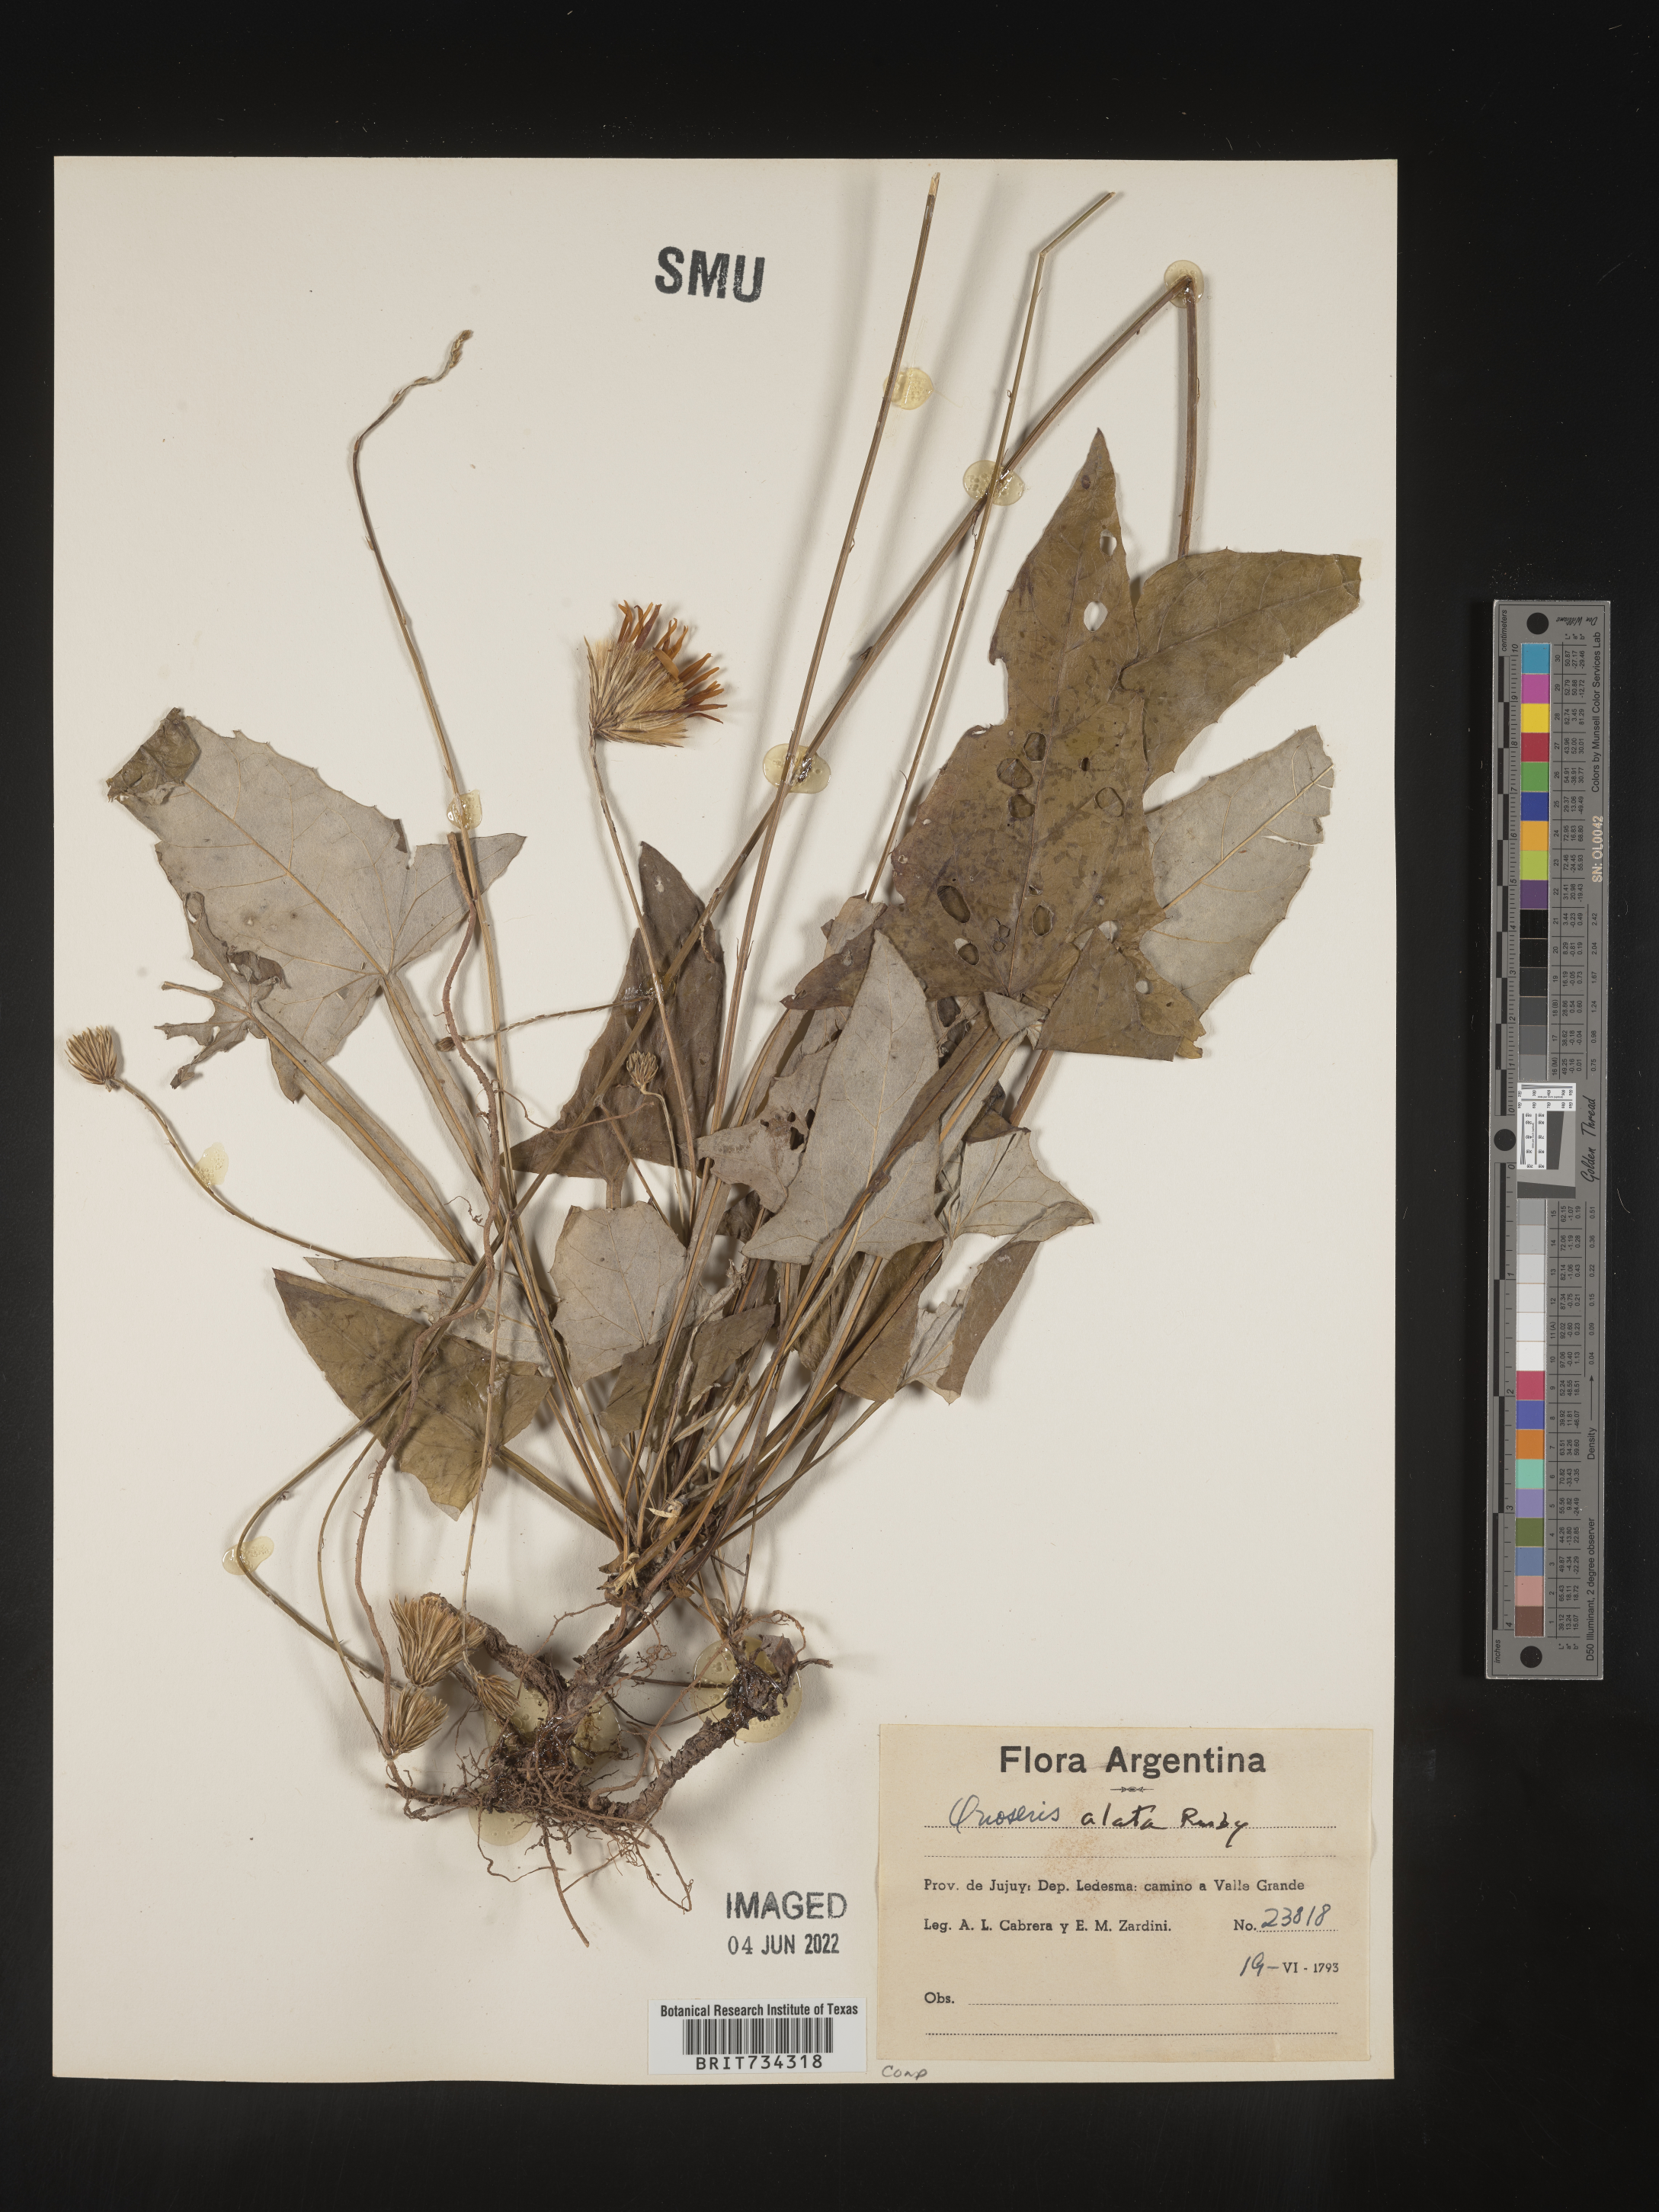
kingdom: Plantae
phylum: Tracheophyta
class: Magnoliopsida
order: Asterales
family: Asteraceae
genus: Onoseris
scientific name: Onoseris
